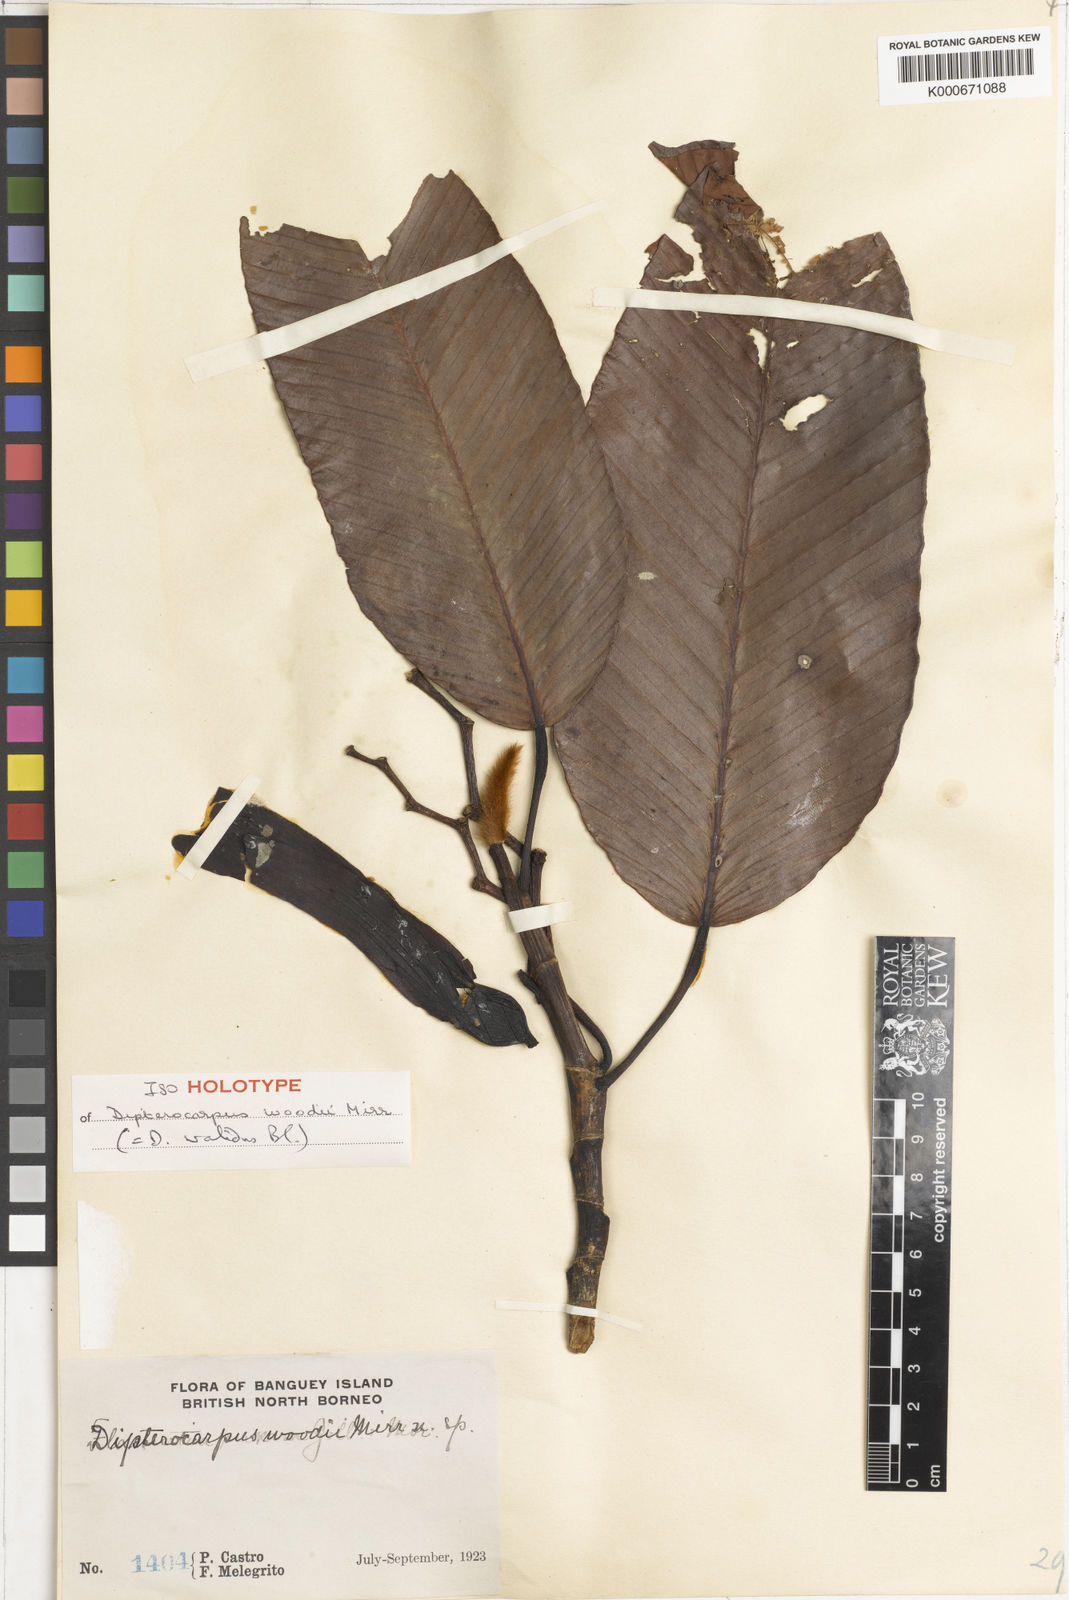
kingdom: Plantae
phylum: Tracheophyta
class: Magnoliopsida
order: Malvales
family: Dipterocarpaceae
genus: Dipterocarpus
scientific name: Dipterocarpus validus
